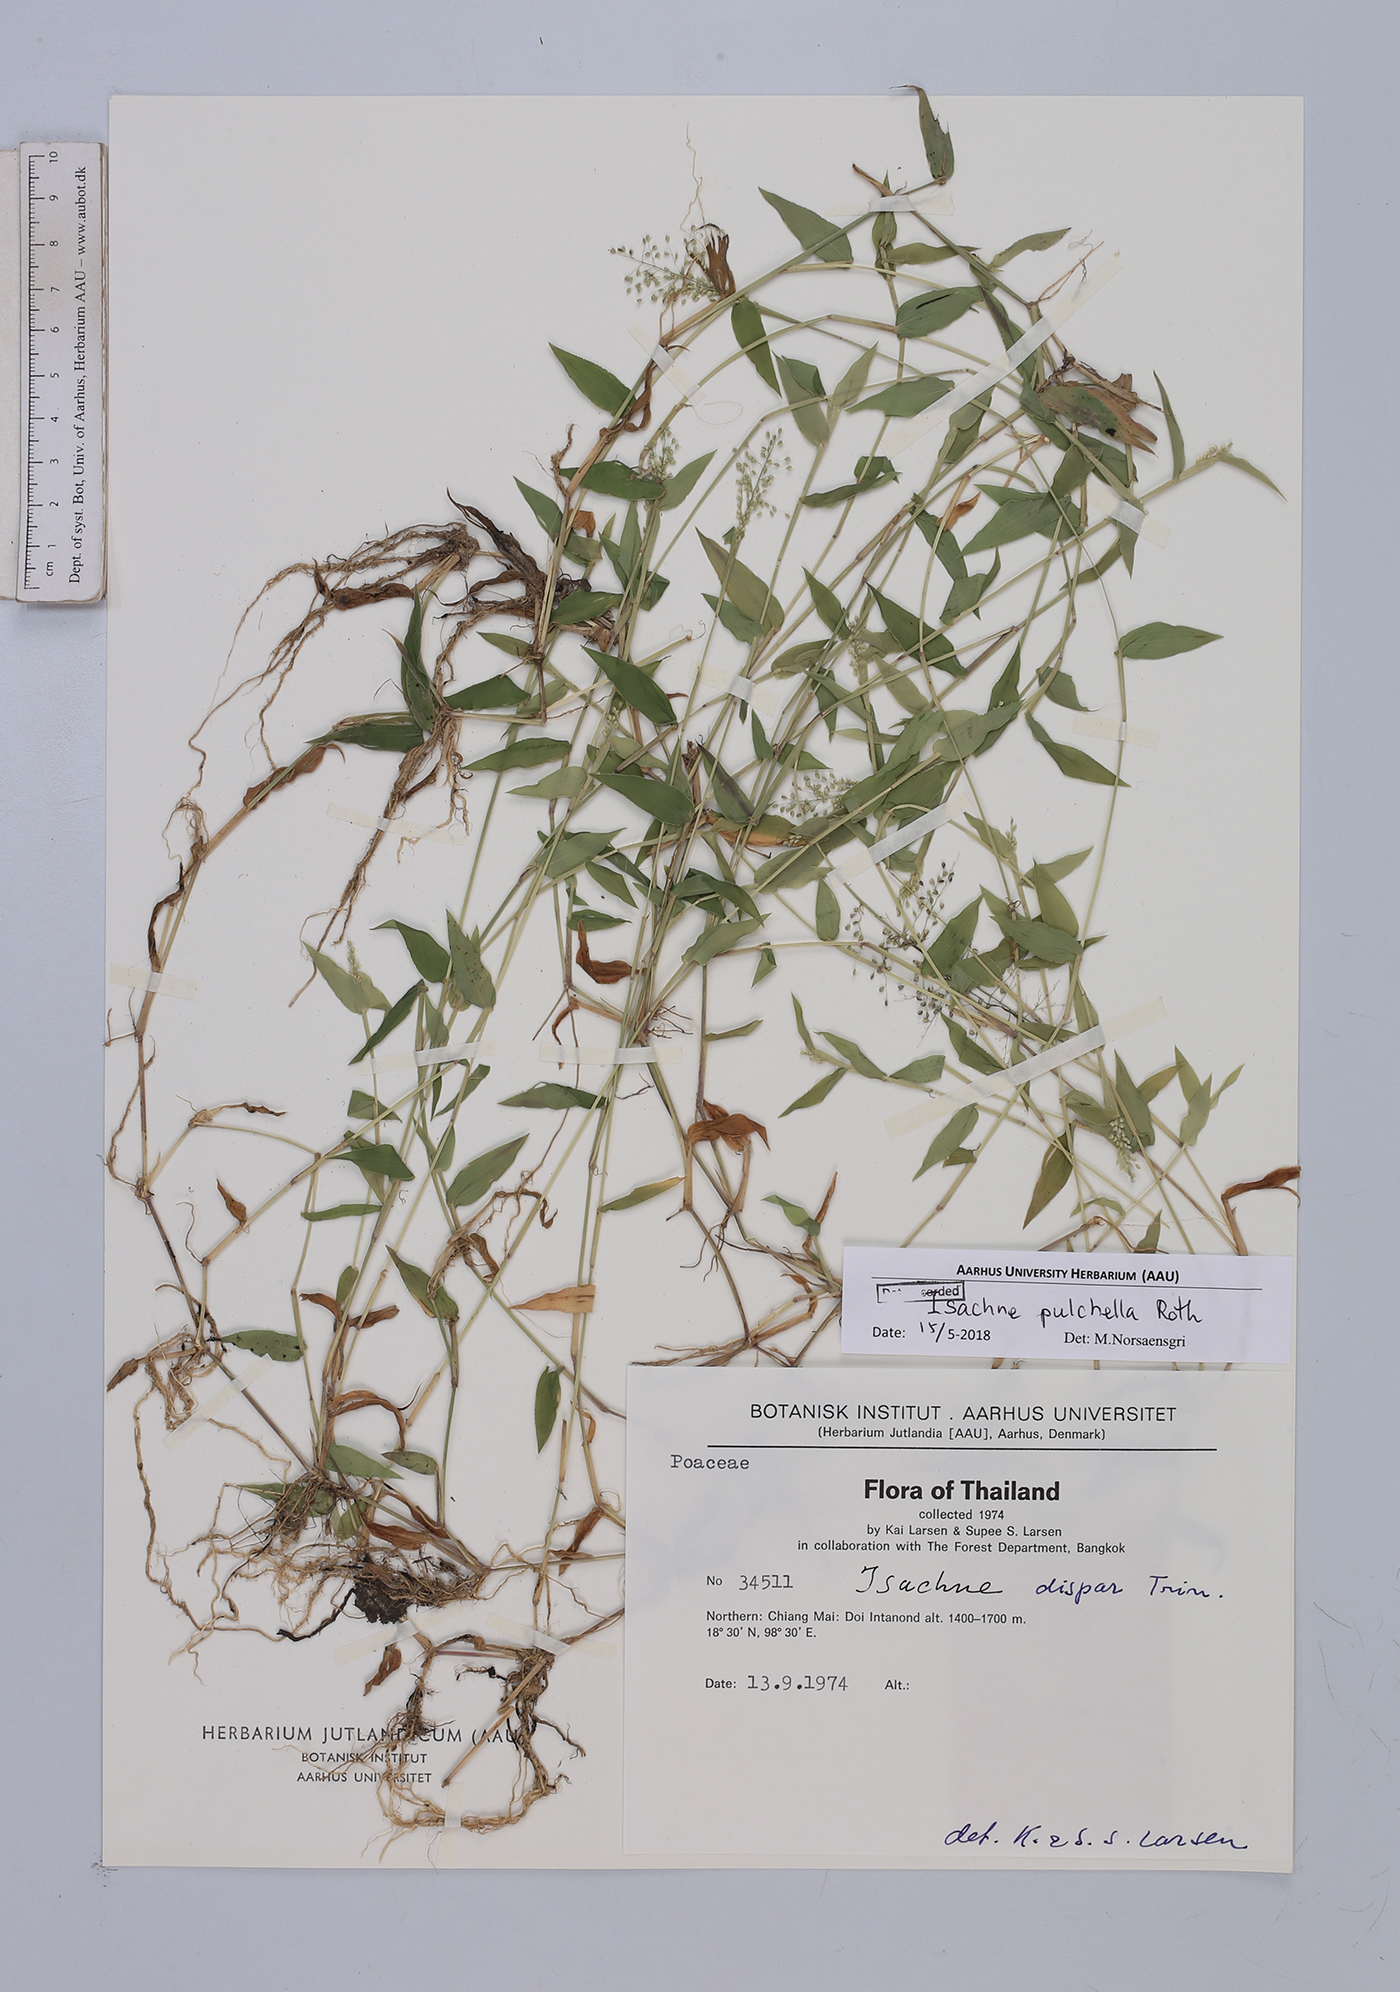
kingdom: Plantae
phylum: Tracheophyta
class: Liliopsida
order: Poales
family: Poaceae
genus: Isachne
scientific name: Isachne pulchella
